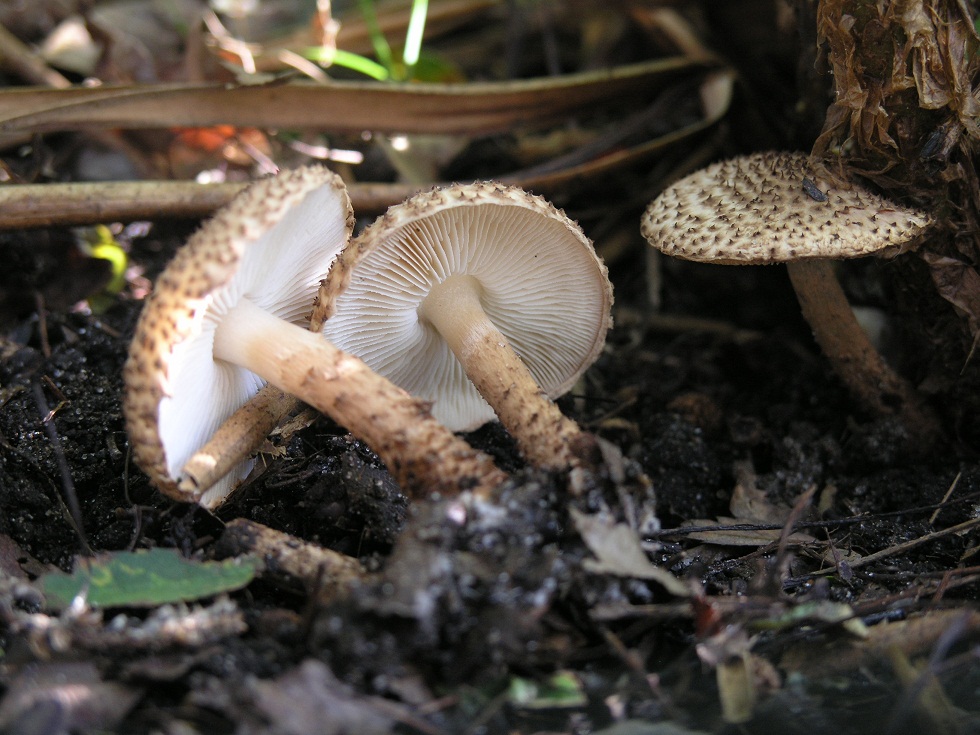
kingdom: Fungi
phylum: Basidiomycota
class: Agaricomycetes
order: Agaricales
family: Agaricaceae
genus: Echinoderma
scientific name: Echinoderma echinaceum
